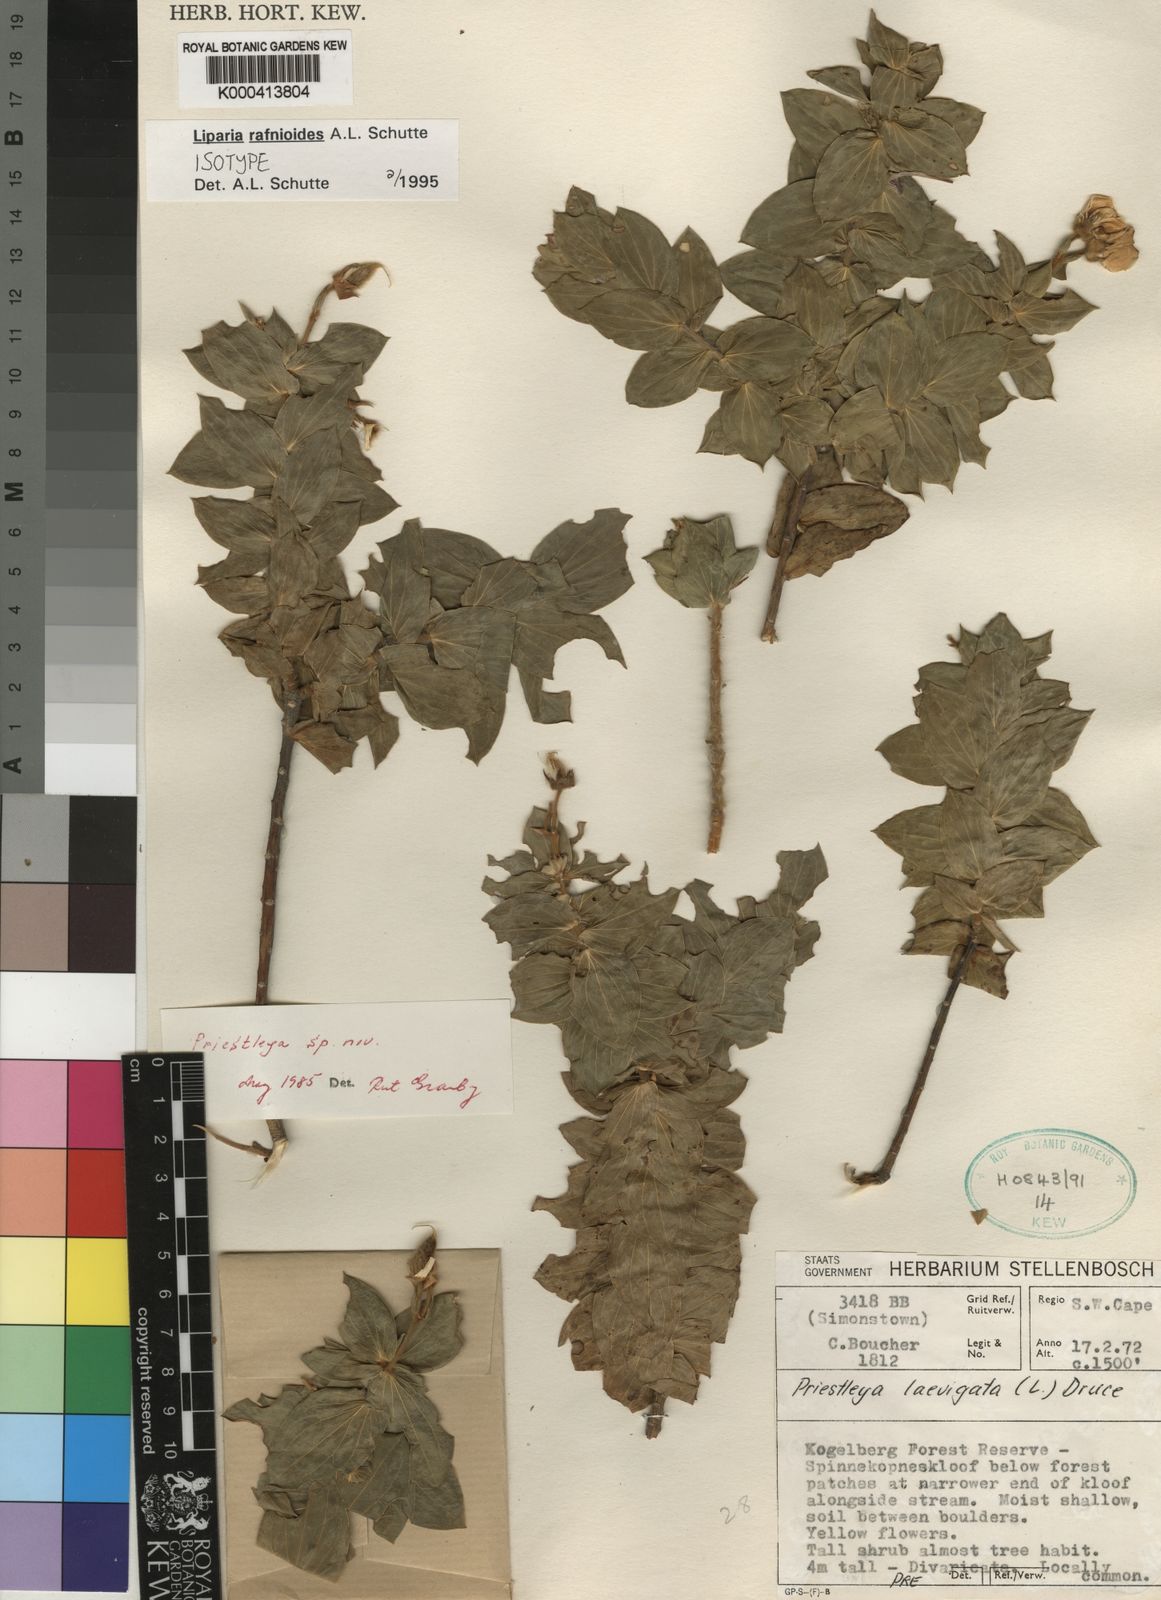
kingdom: Plantae
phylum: Tracheophyta
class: Magnoliopsida
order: Fabales
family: Fabaceae
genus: Liparia
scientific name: Liparia rafnioides
